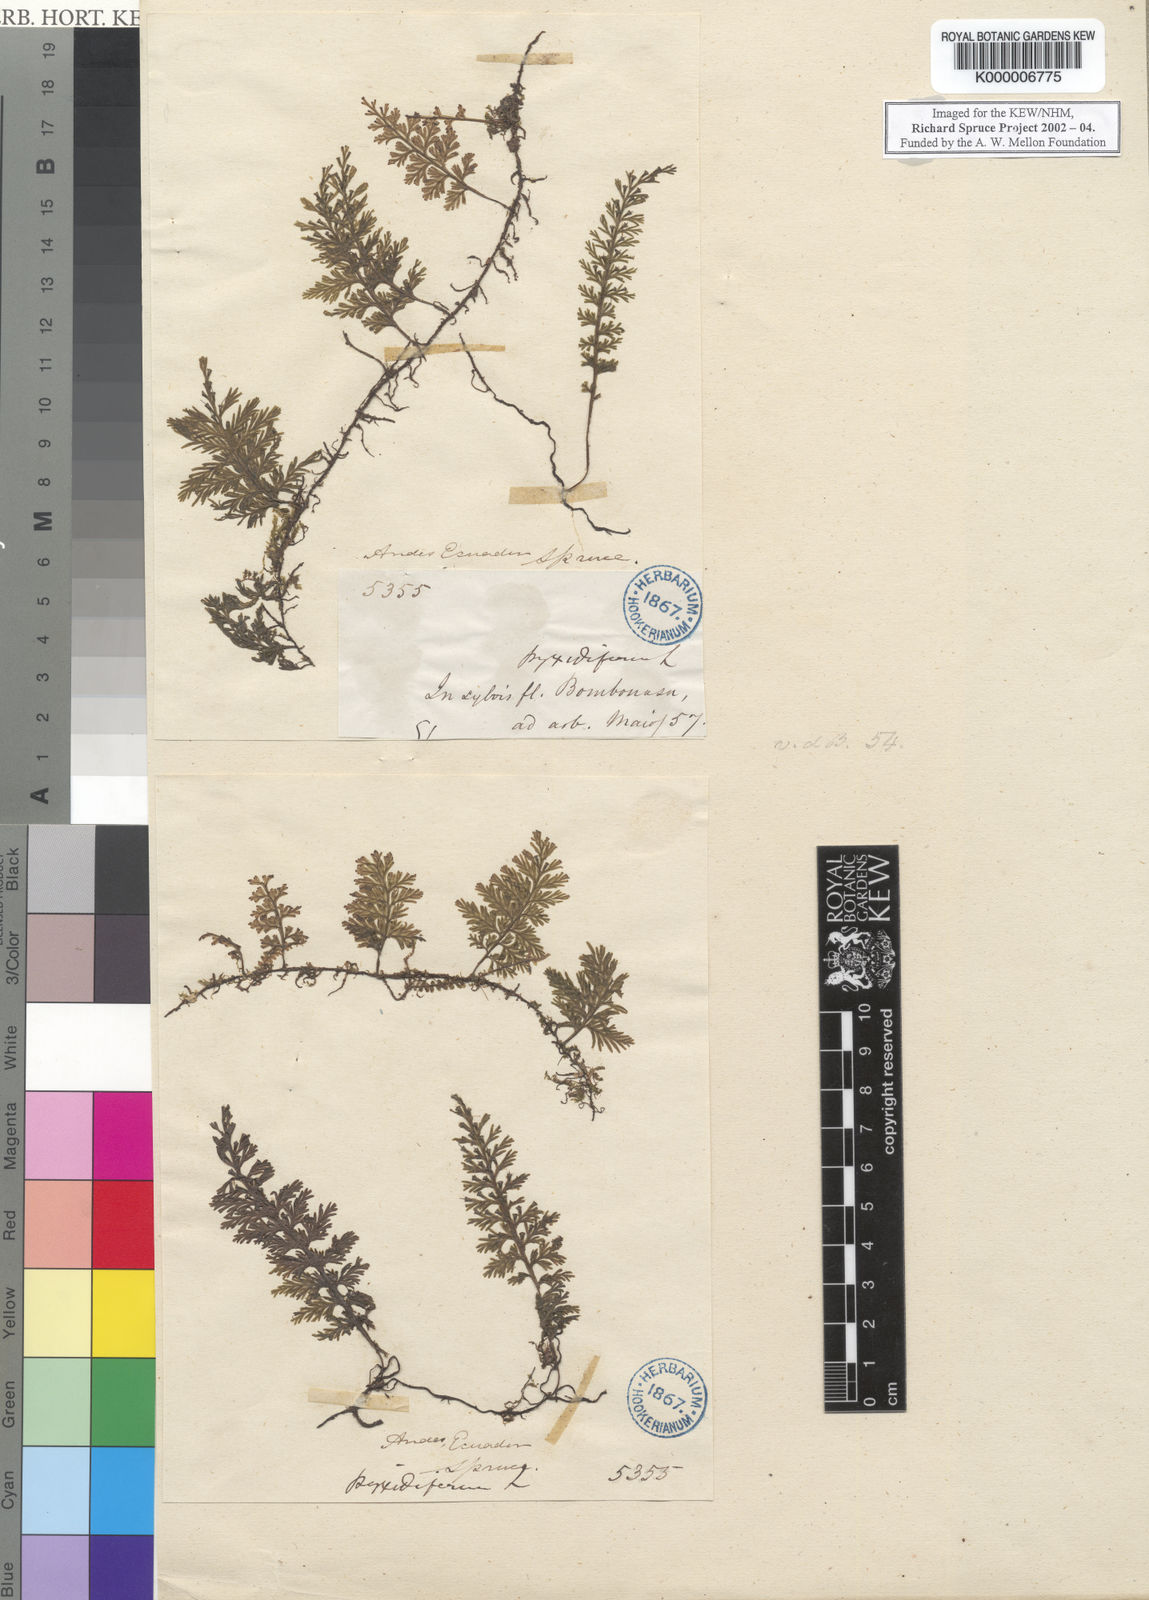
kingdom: Plantae
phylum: Tracheophyta
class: Polypodiopsida
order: Hymenophyllales
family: Hymenophyllaceae
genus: Trichomanes
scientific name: Trichomanes
